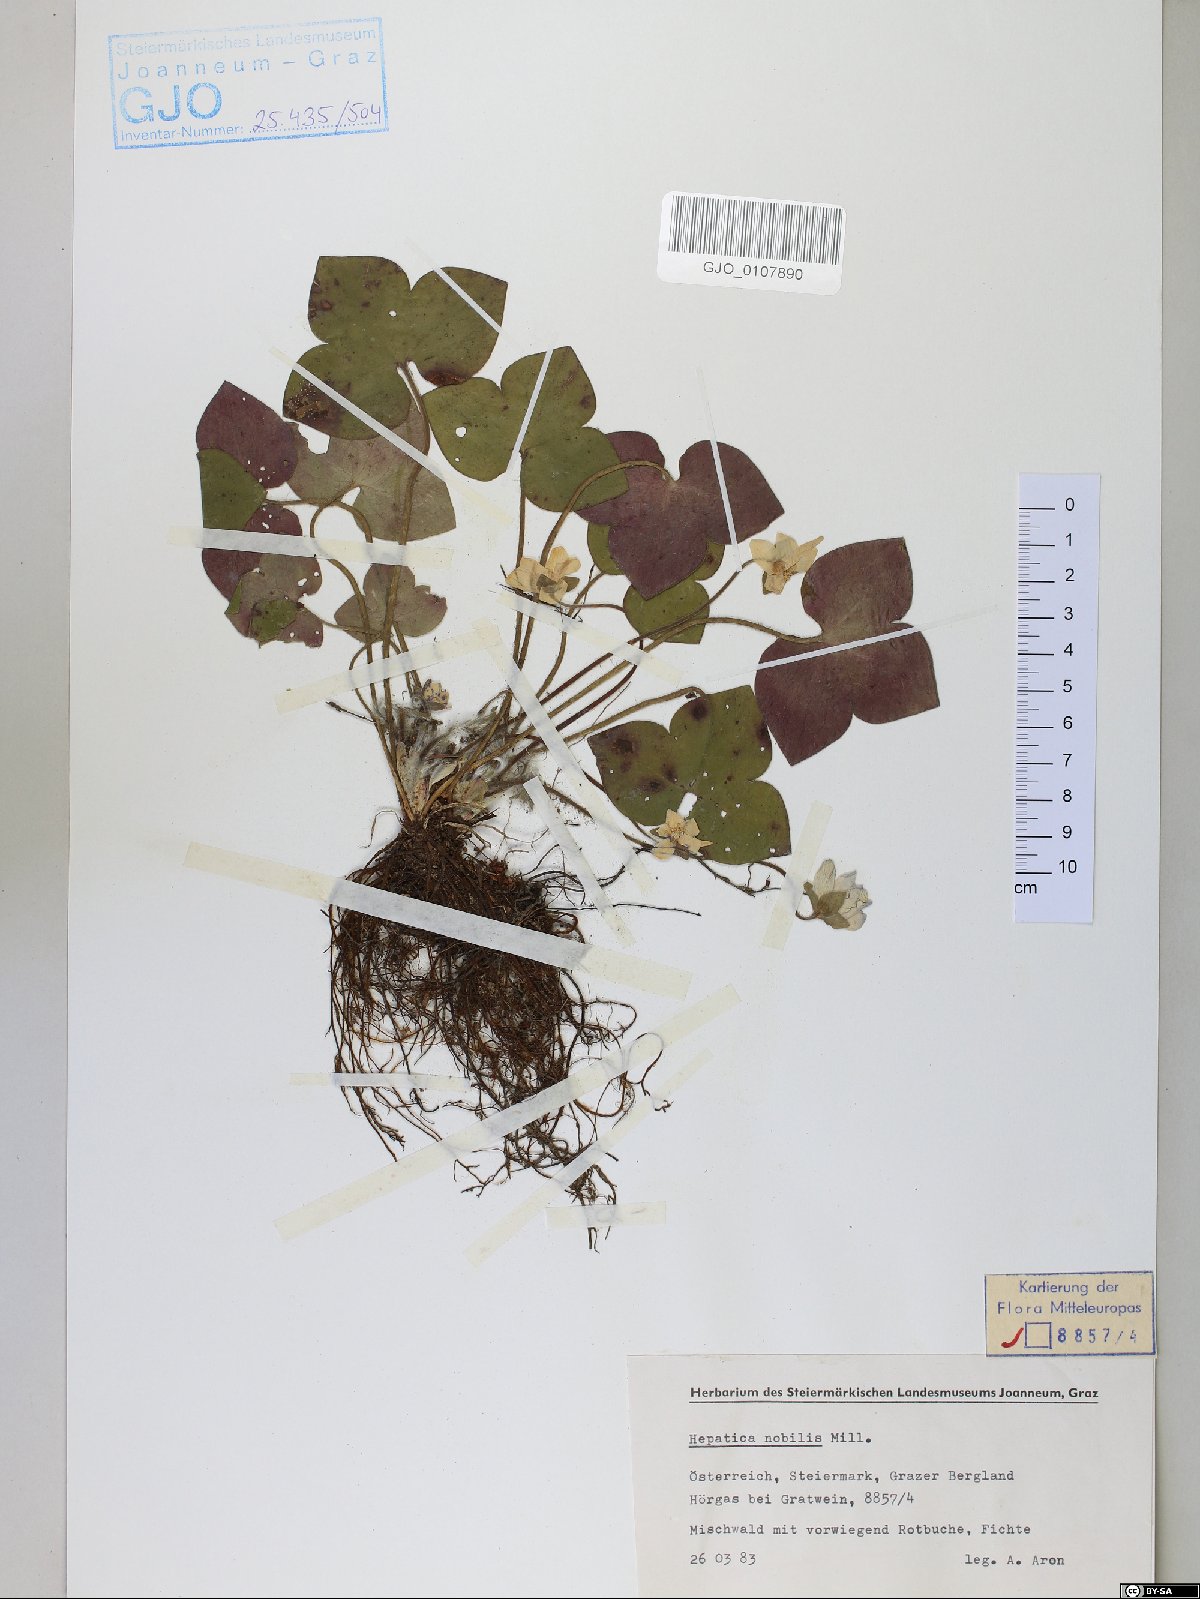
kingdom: Plantae
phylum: Tracheophyta
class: Magnoliopsida
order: Ranunculales
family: Ranunculaceae
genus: Hepatica
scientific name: Hepatica nobilis
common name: Liverleaf
